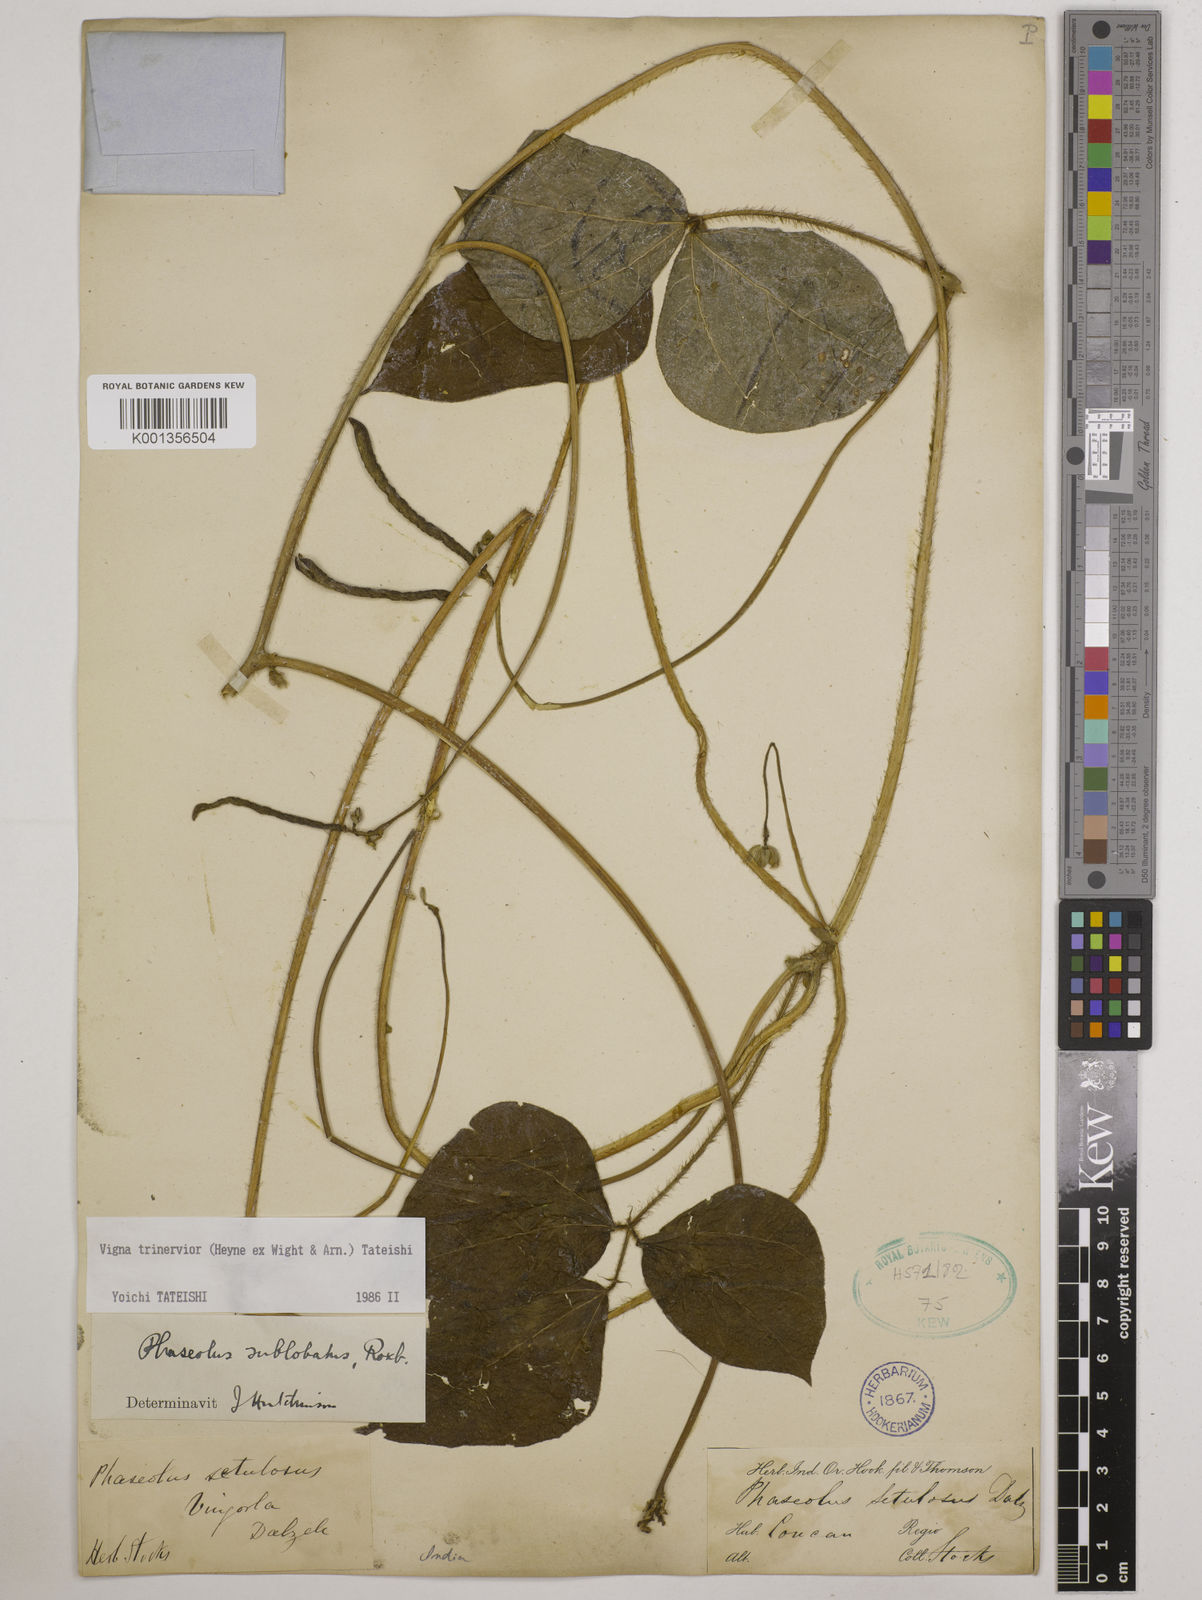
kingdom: Plantae
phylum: Tracheophyta
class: Magnoliopsida
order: Fabales
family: Fabaceae
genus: Vigna
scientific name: Vigna radiata
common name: Mung-bean
